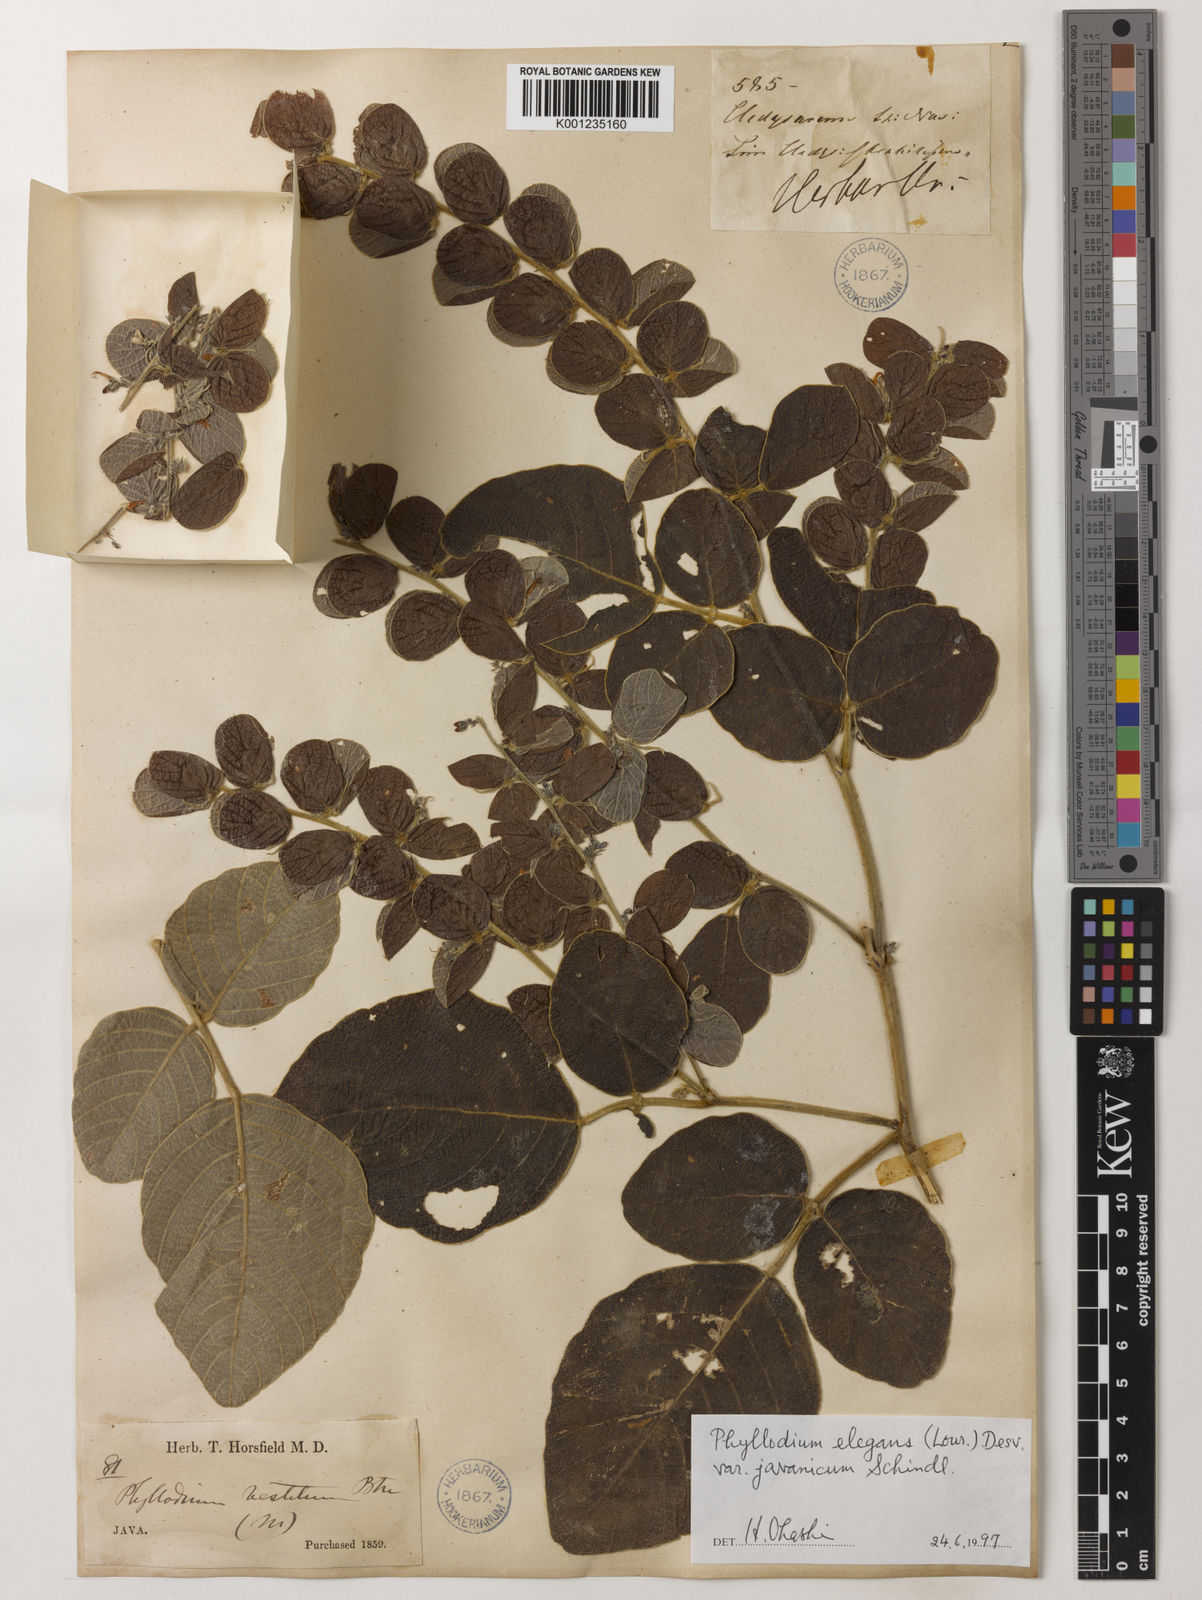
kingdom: Plantae
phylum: Tracheophyta
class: Magnoliopsida
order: Fabales
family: Fabaceae
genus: Phyllodium
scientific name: Phyllodium
